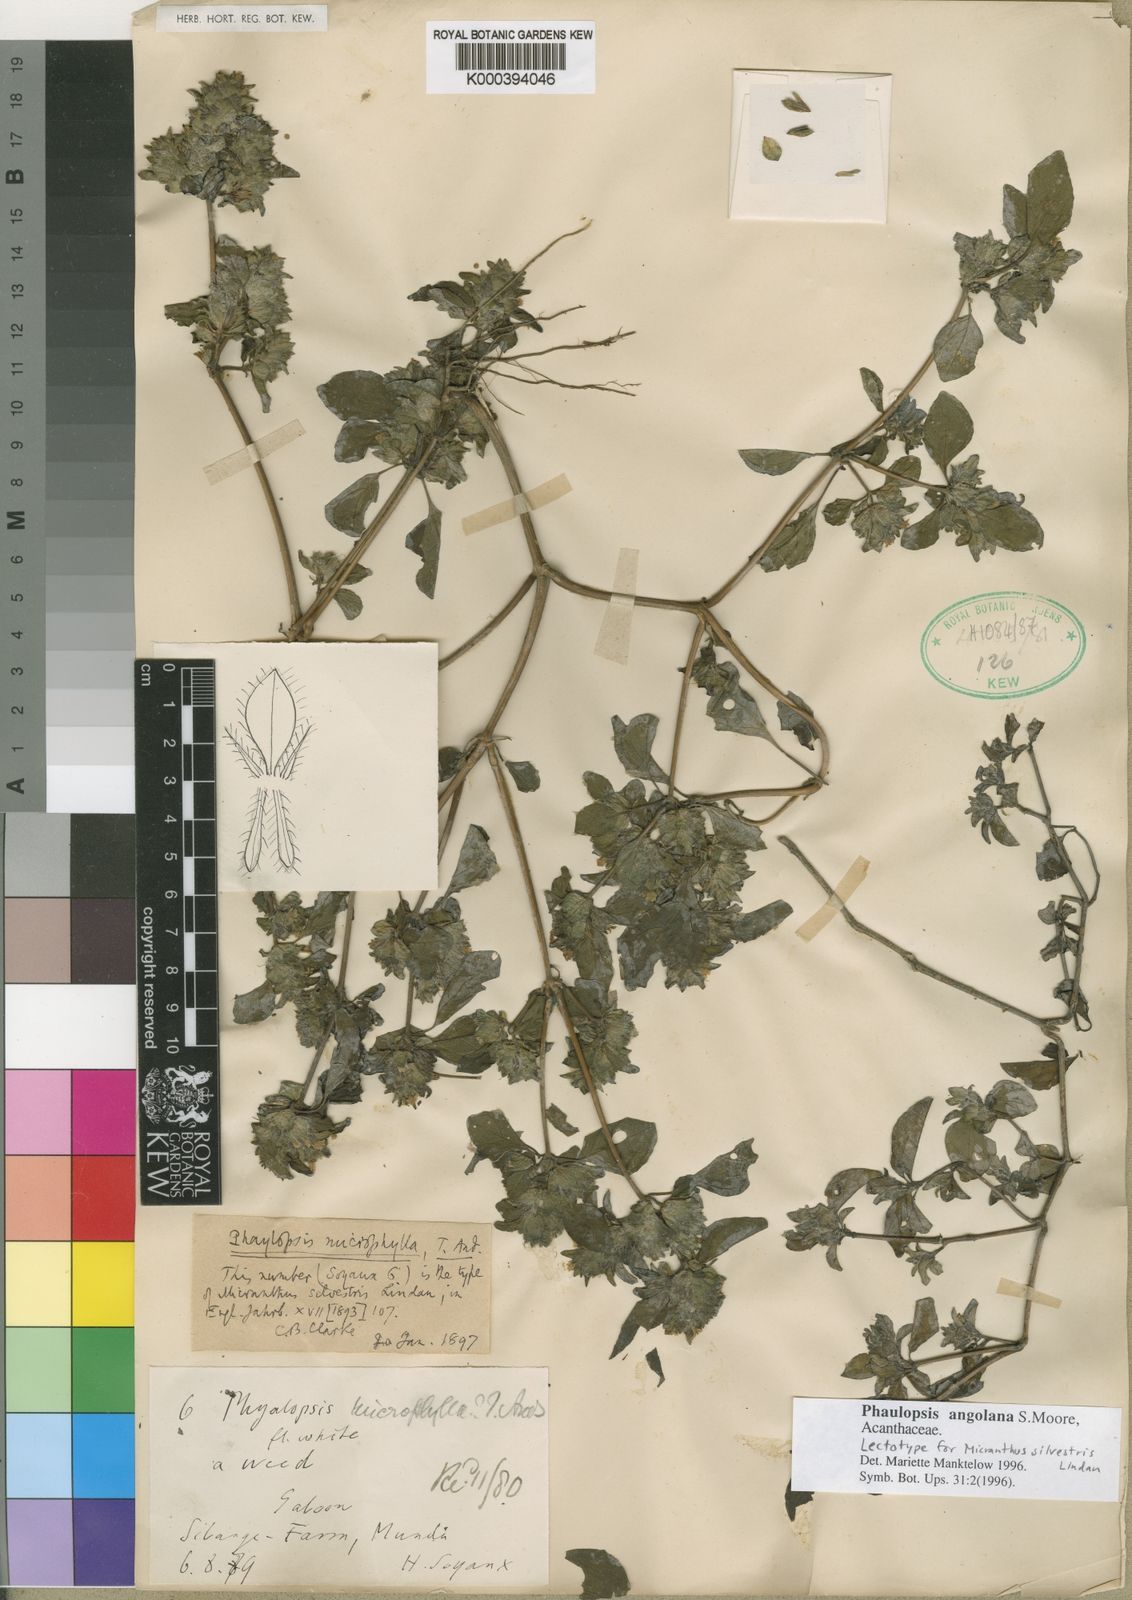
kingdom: Plantae
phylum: Tracheophyta
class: Magnoliopsida
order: Lamiales
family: Acanthaceae
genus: Phaulopsis
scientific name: Phaulopsis angolana
